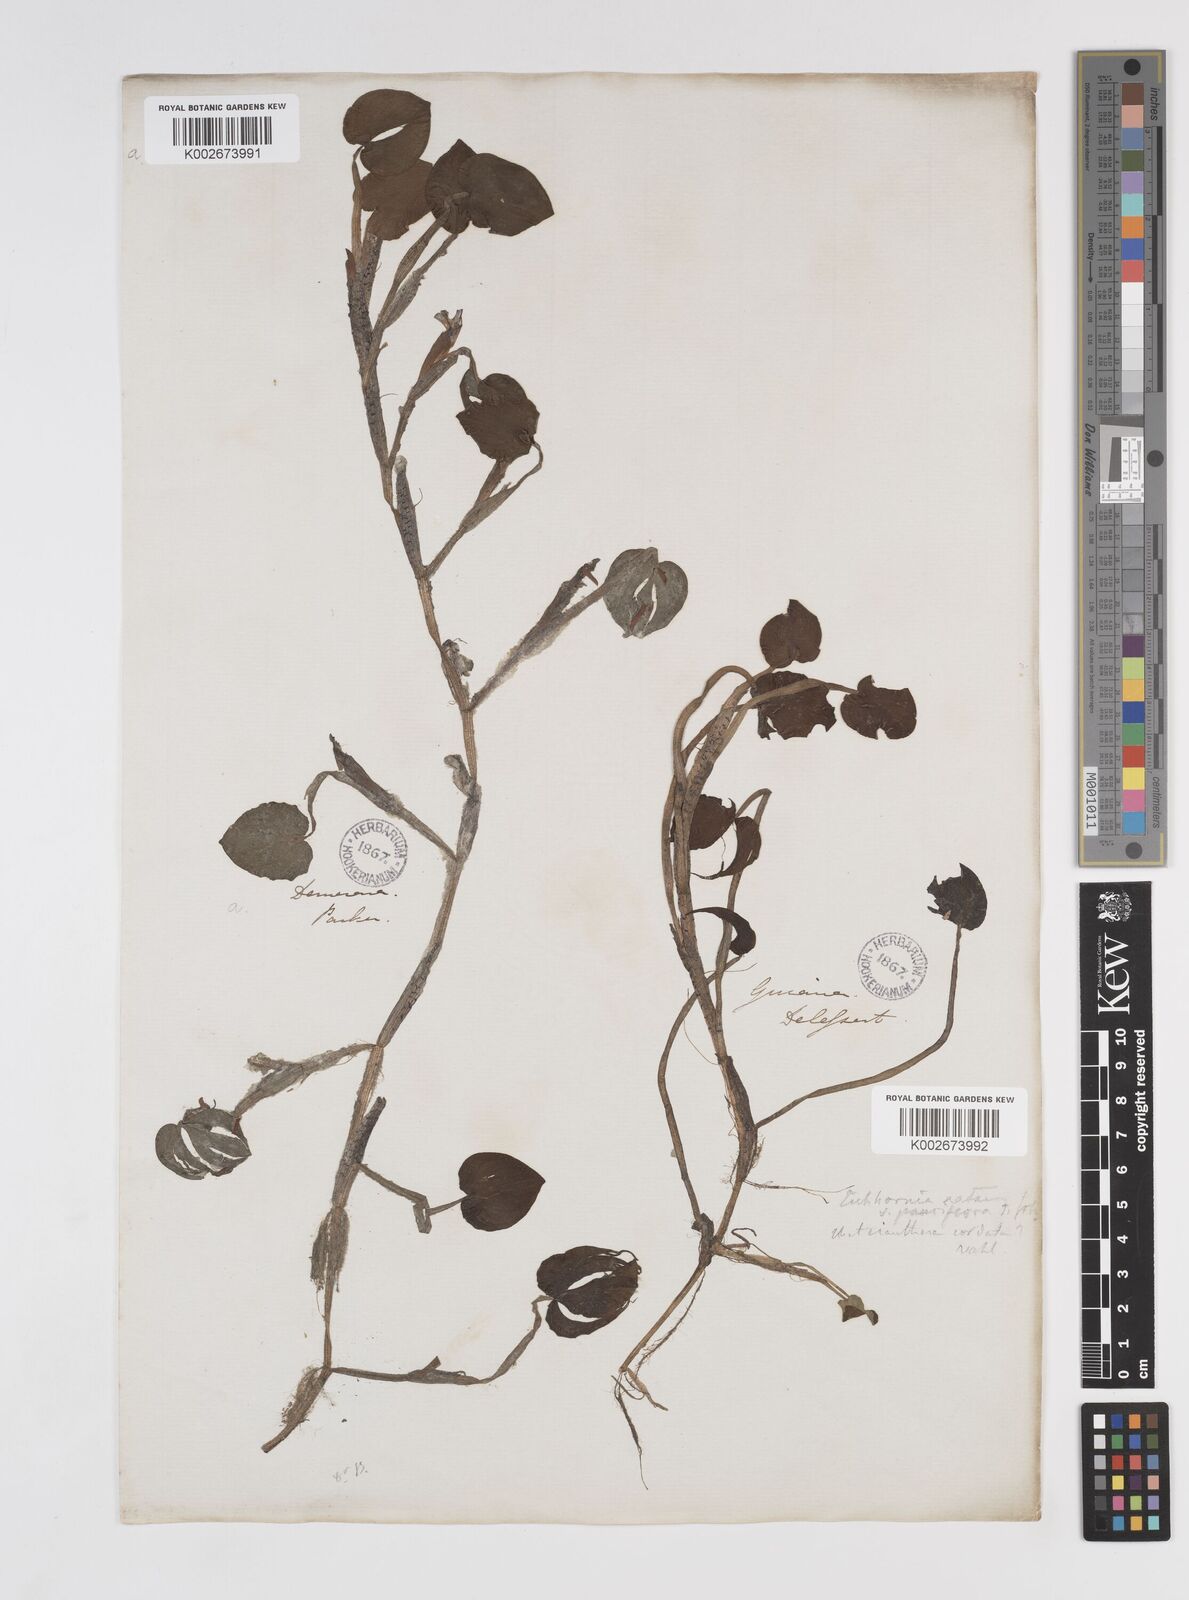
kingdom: Plantae
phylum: Tracheophyta
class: Liliopsida
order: Commelinales
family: Pontederiaceae
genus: Pontederia
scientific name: Pontederia diversifolia
